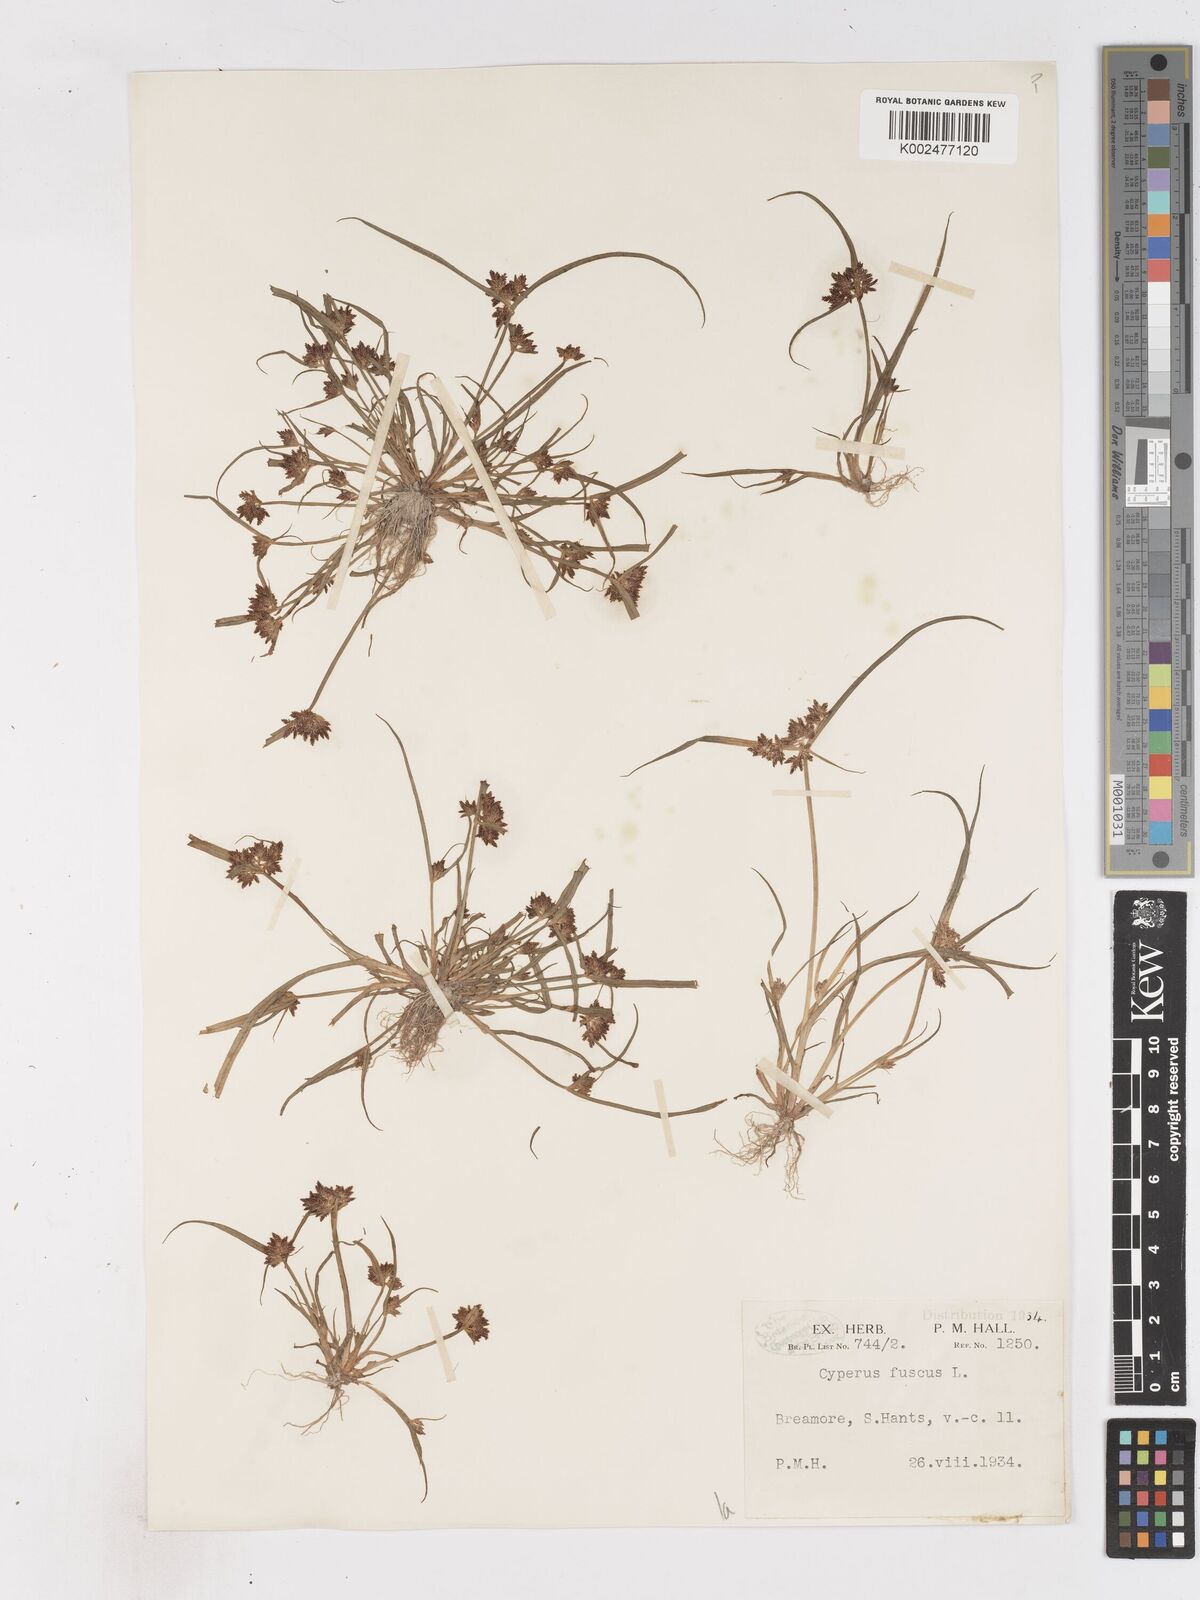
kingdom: Plantae
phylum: Tracheophyta
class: Liliopsida
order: Poales
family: Cyperaceae
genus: Cyperus
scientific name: Cyperus fuscus
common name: Brown galingale
